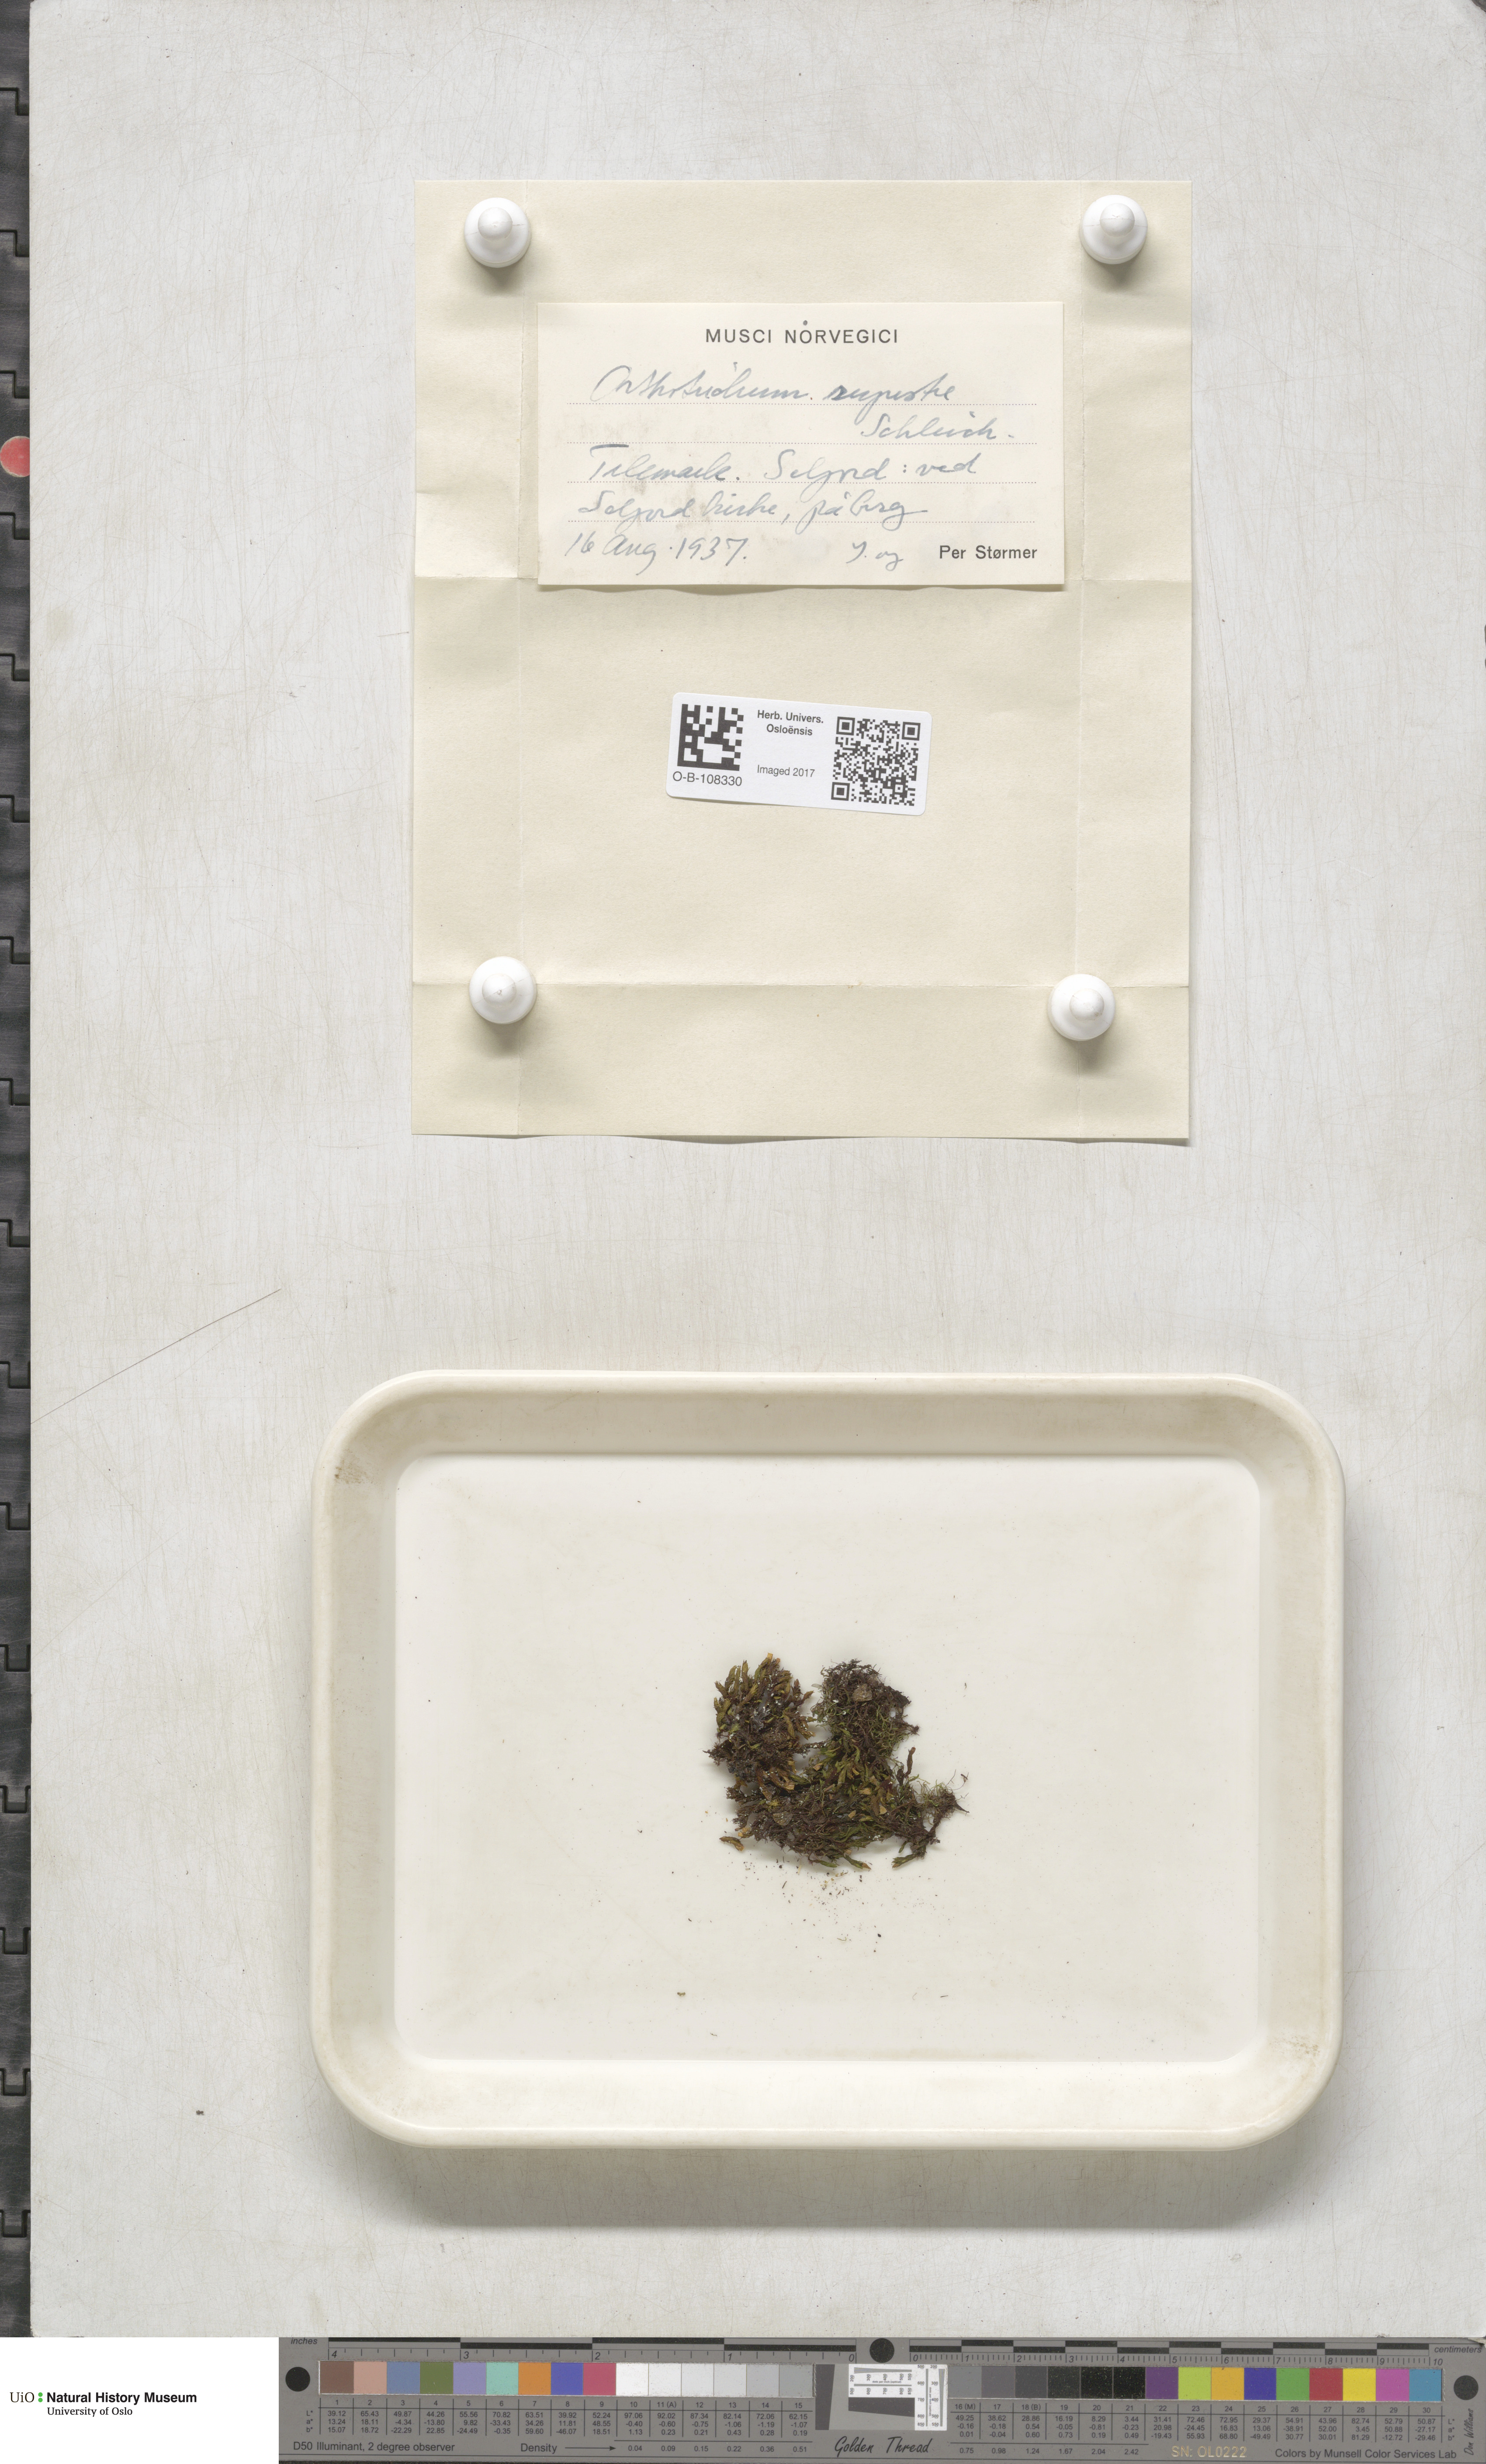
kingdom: Plantae
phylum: Bryophyta
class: Bryopsida
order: Orthotrichales
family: Orthotrichaceae
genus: Lewinskya
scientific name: Lewinskya rupestris
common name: Rock bristle-moss
